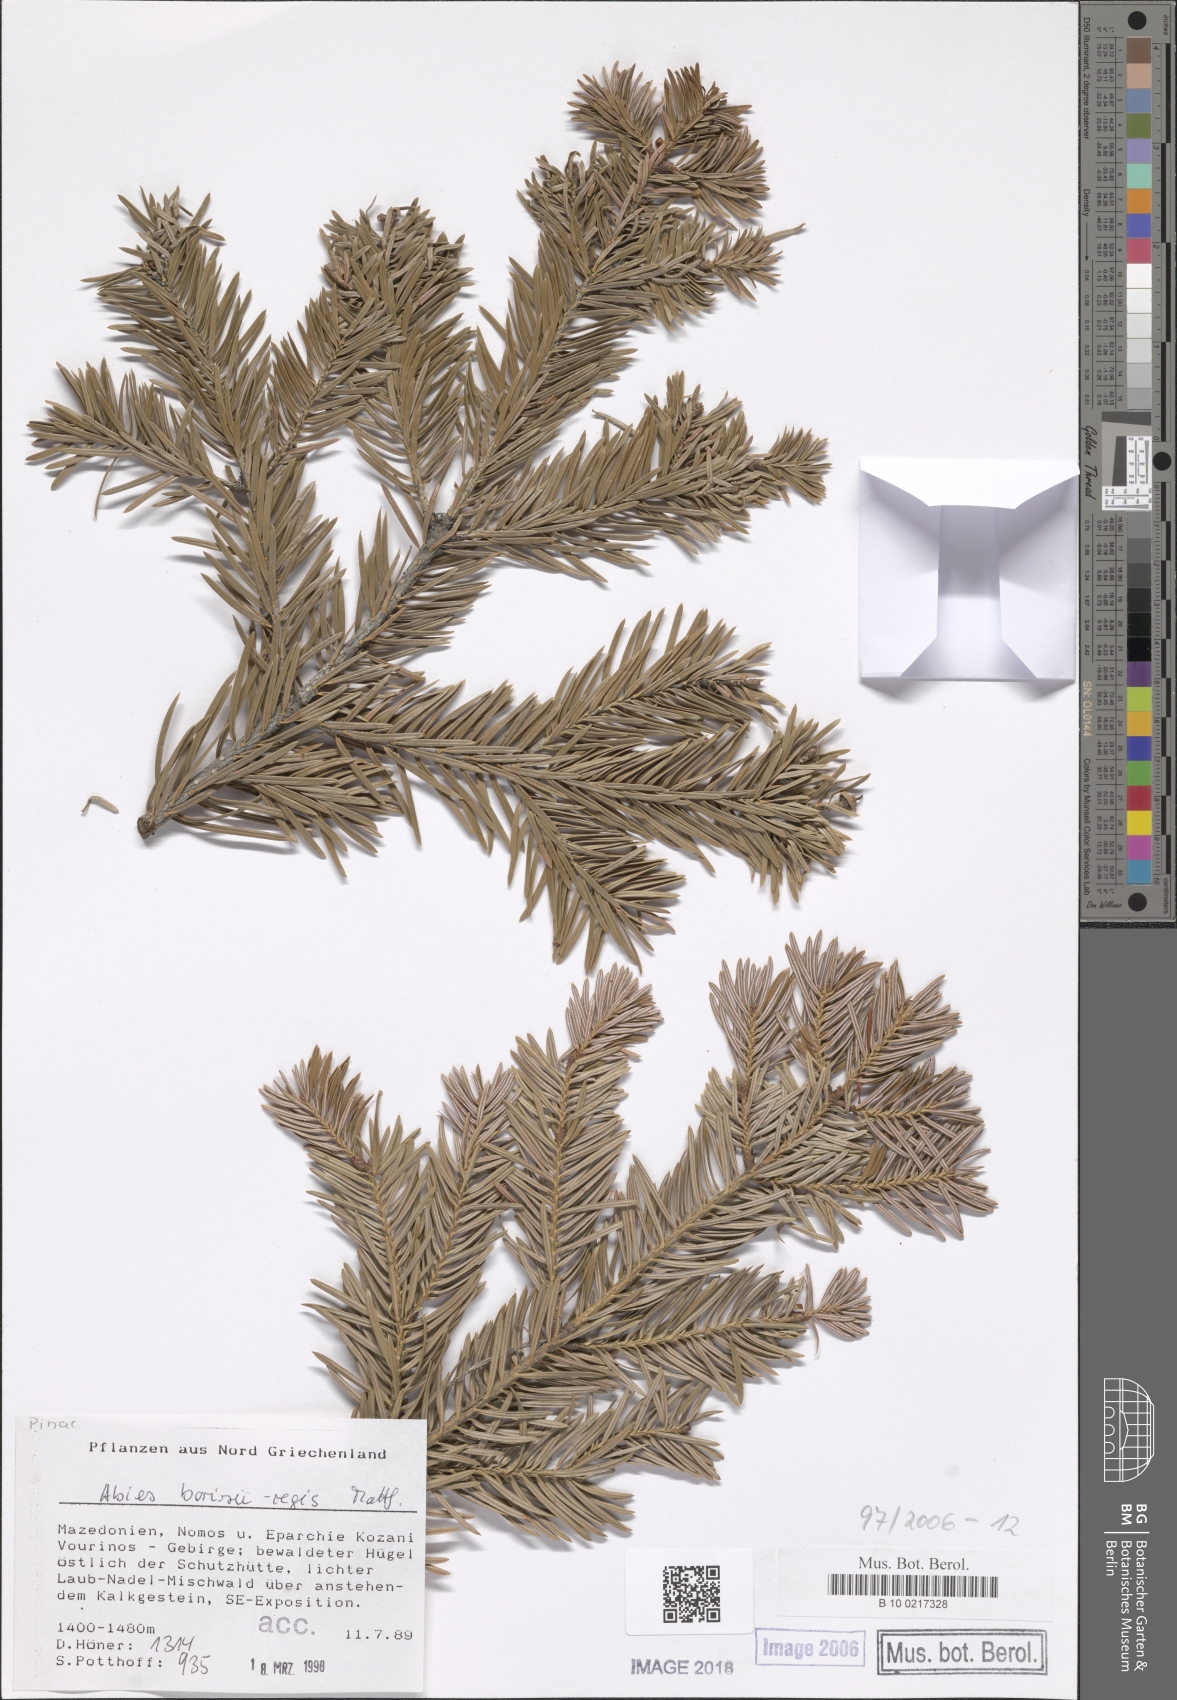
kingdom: Plantae
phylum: Tracheophyta
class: Pinopsida
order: Pinales
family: Pinaceae
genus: Abies
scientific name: Abies borisii-regis
